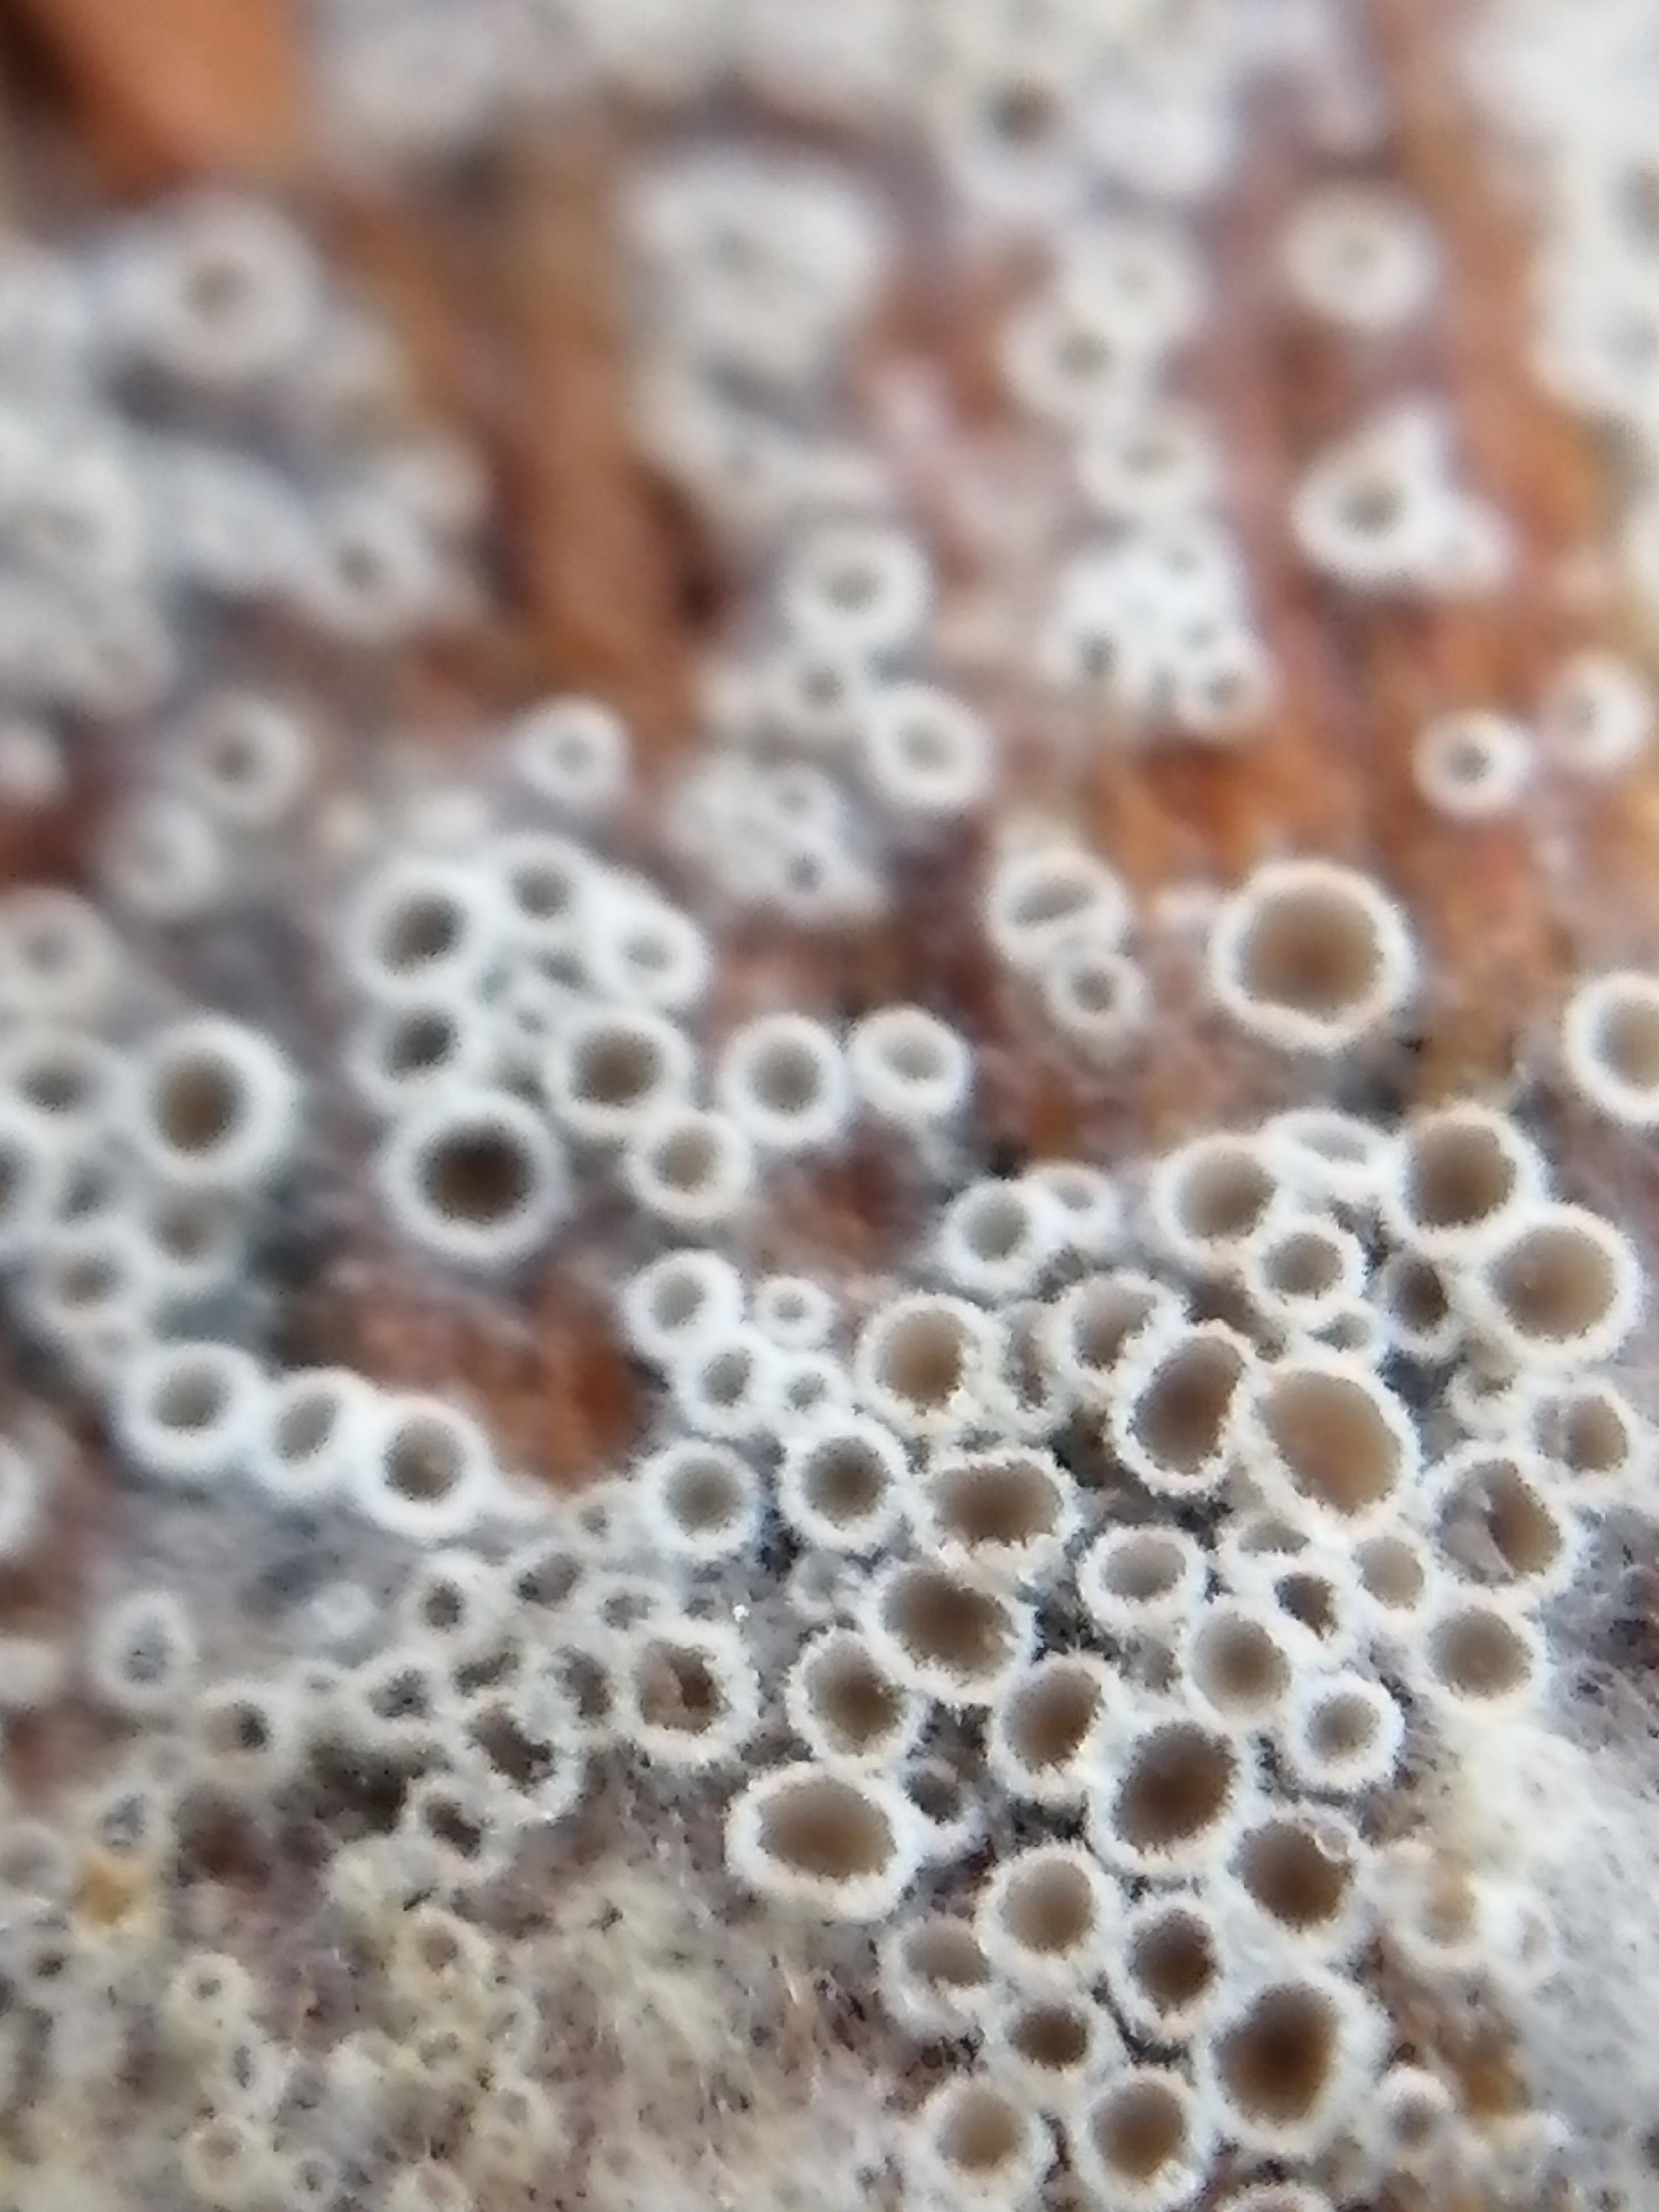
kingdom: Fungi
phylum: Ascomycota
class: Leotiomycetes
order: Helotiales
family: Arachnopezizaceae
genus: Eriopezia
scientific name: Eriopezia caesia
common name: ege-spindskive
